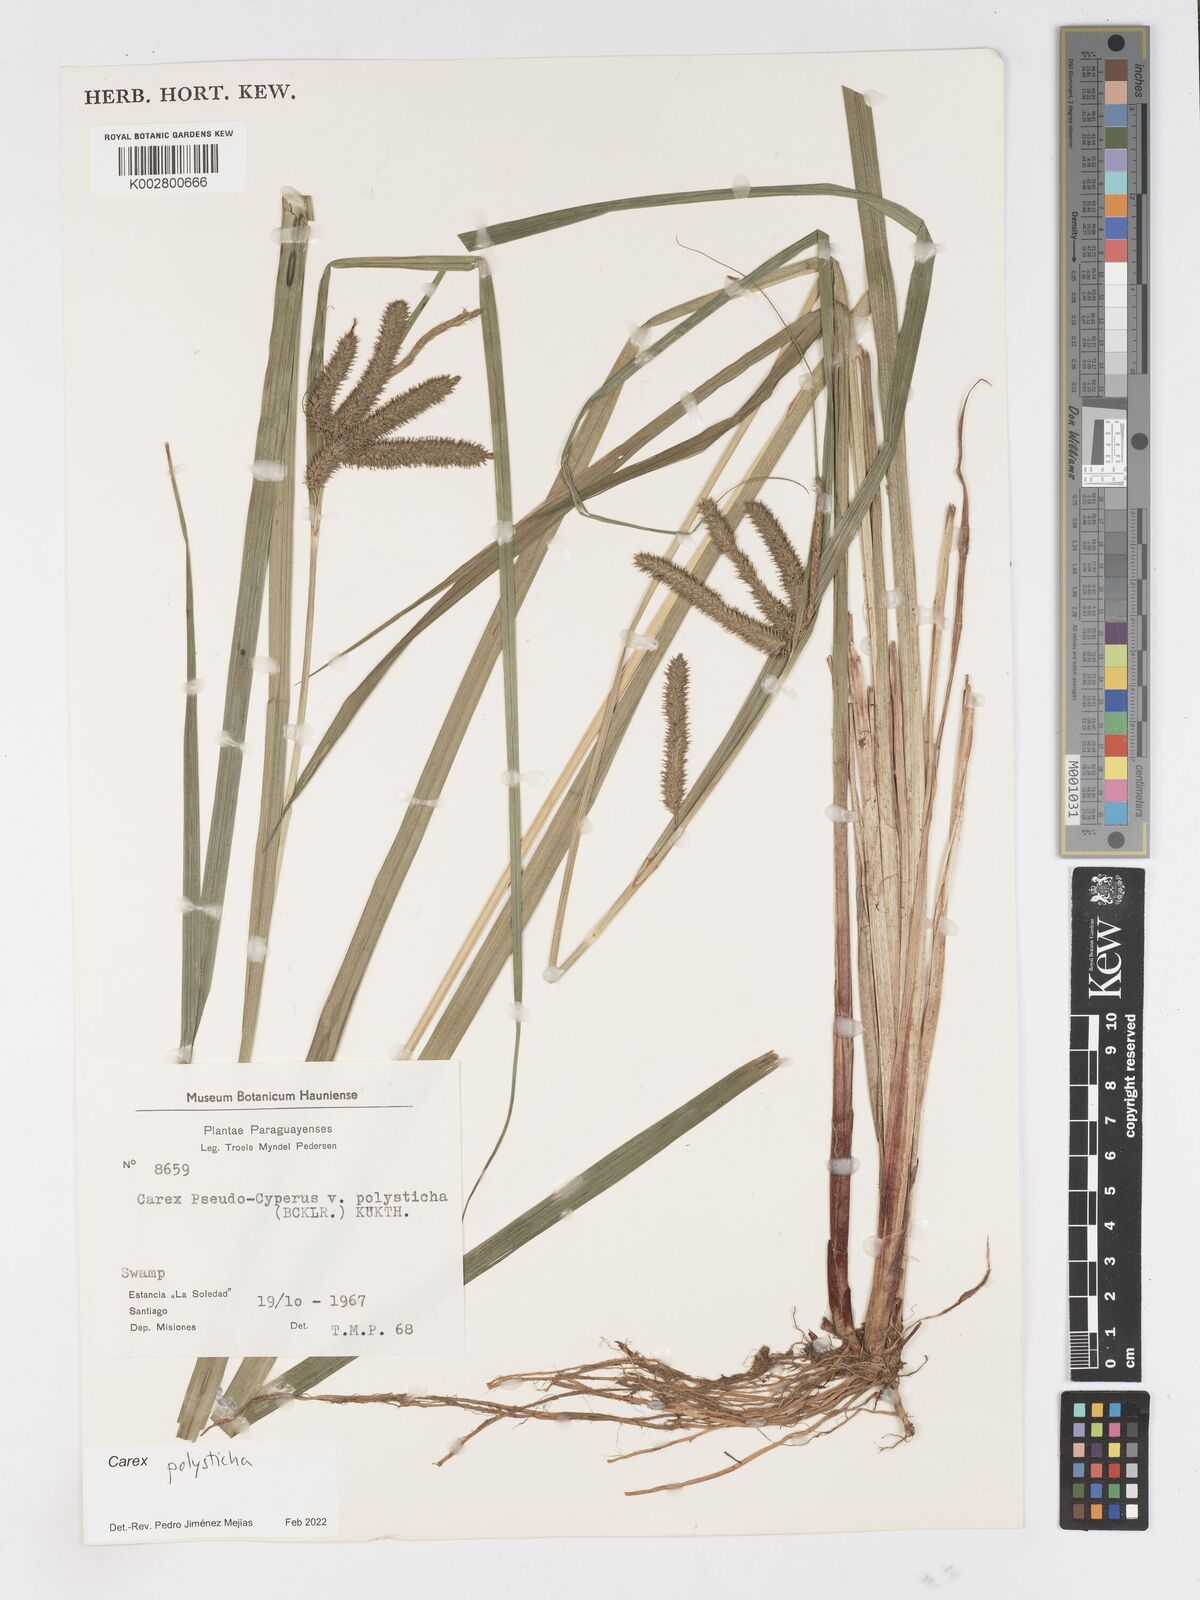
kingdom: Plantae
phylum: Tracheophyta
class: Liliopsida
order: Poales
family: Cyperaceae
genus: Carex
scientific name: Carex polysticha
